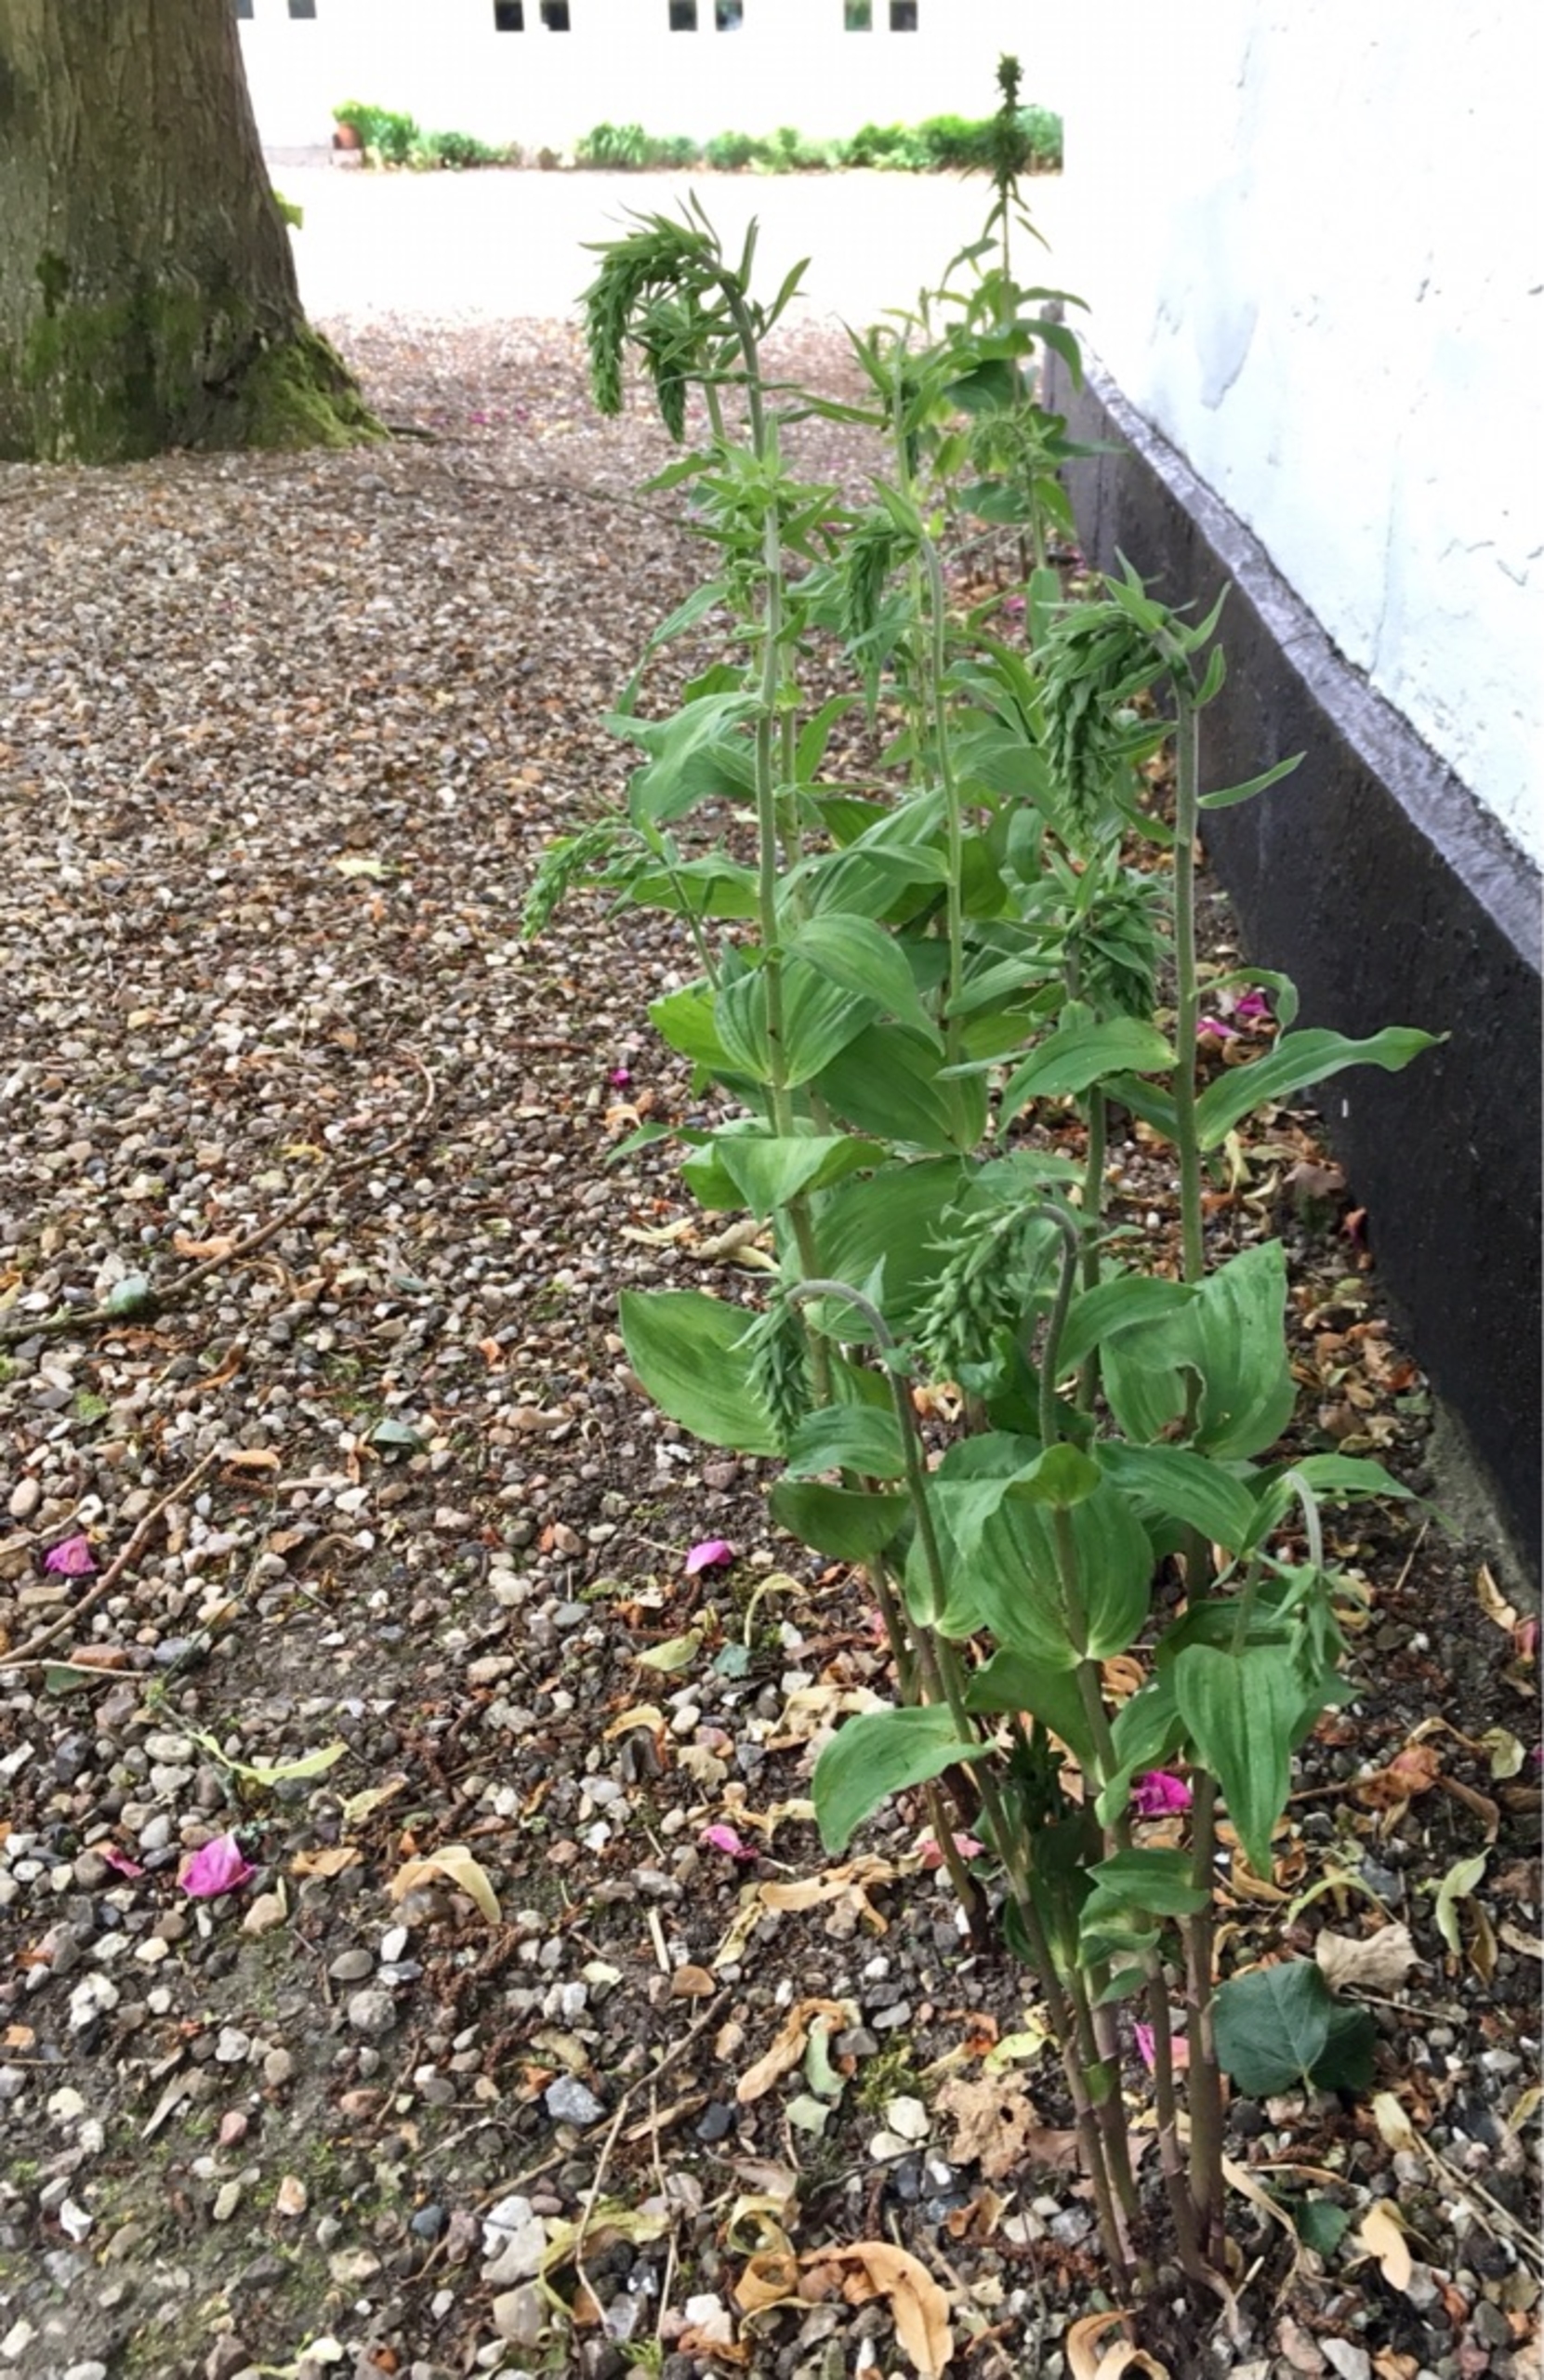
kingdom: Plantae
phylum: Tracheophyta
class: Liliopsida
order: Asparagales
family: Orchidaceae
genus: Epipactis
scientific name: Epipactis helleborine
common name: Skov-hullæbe
